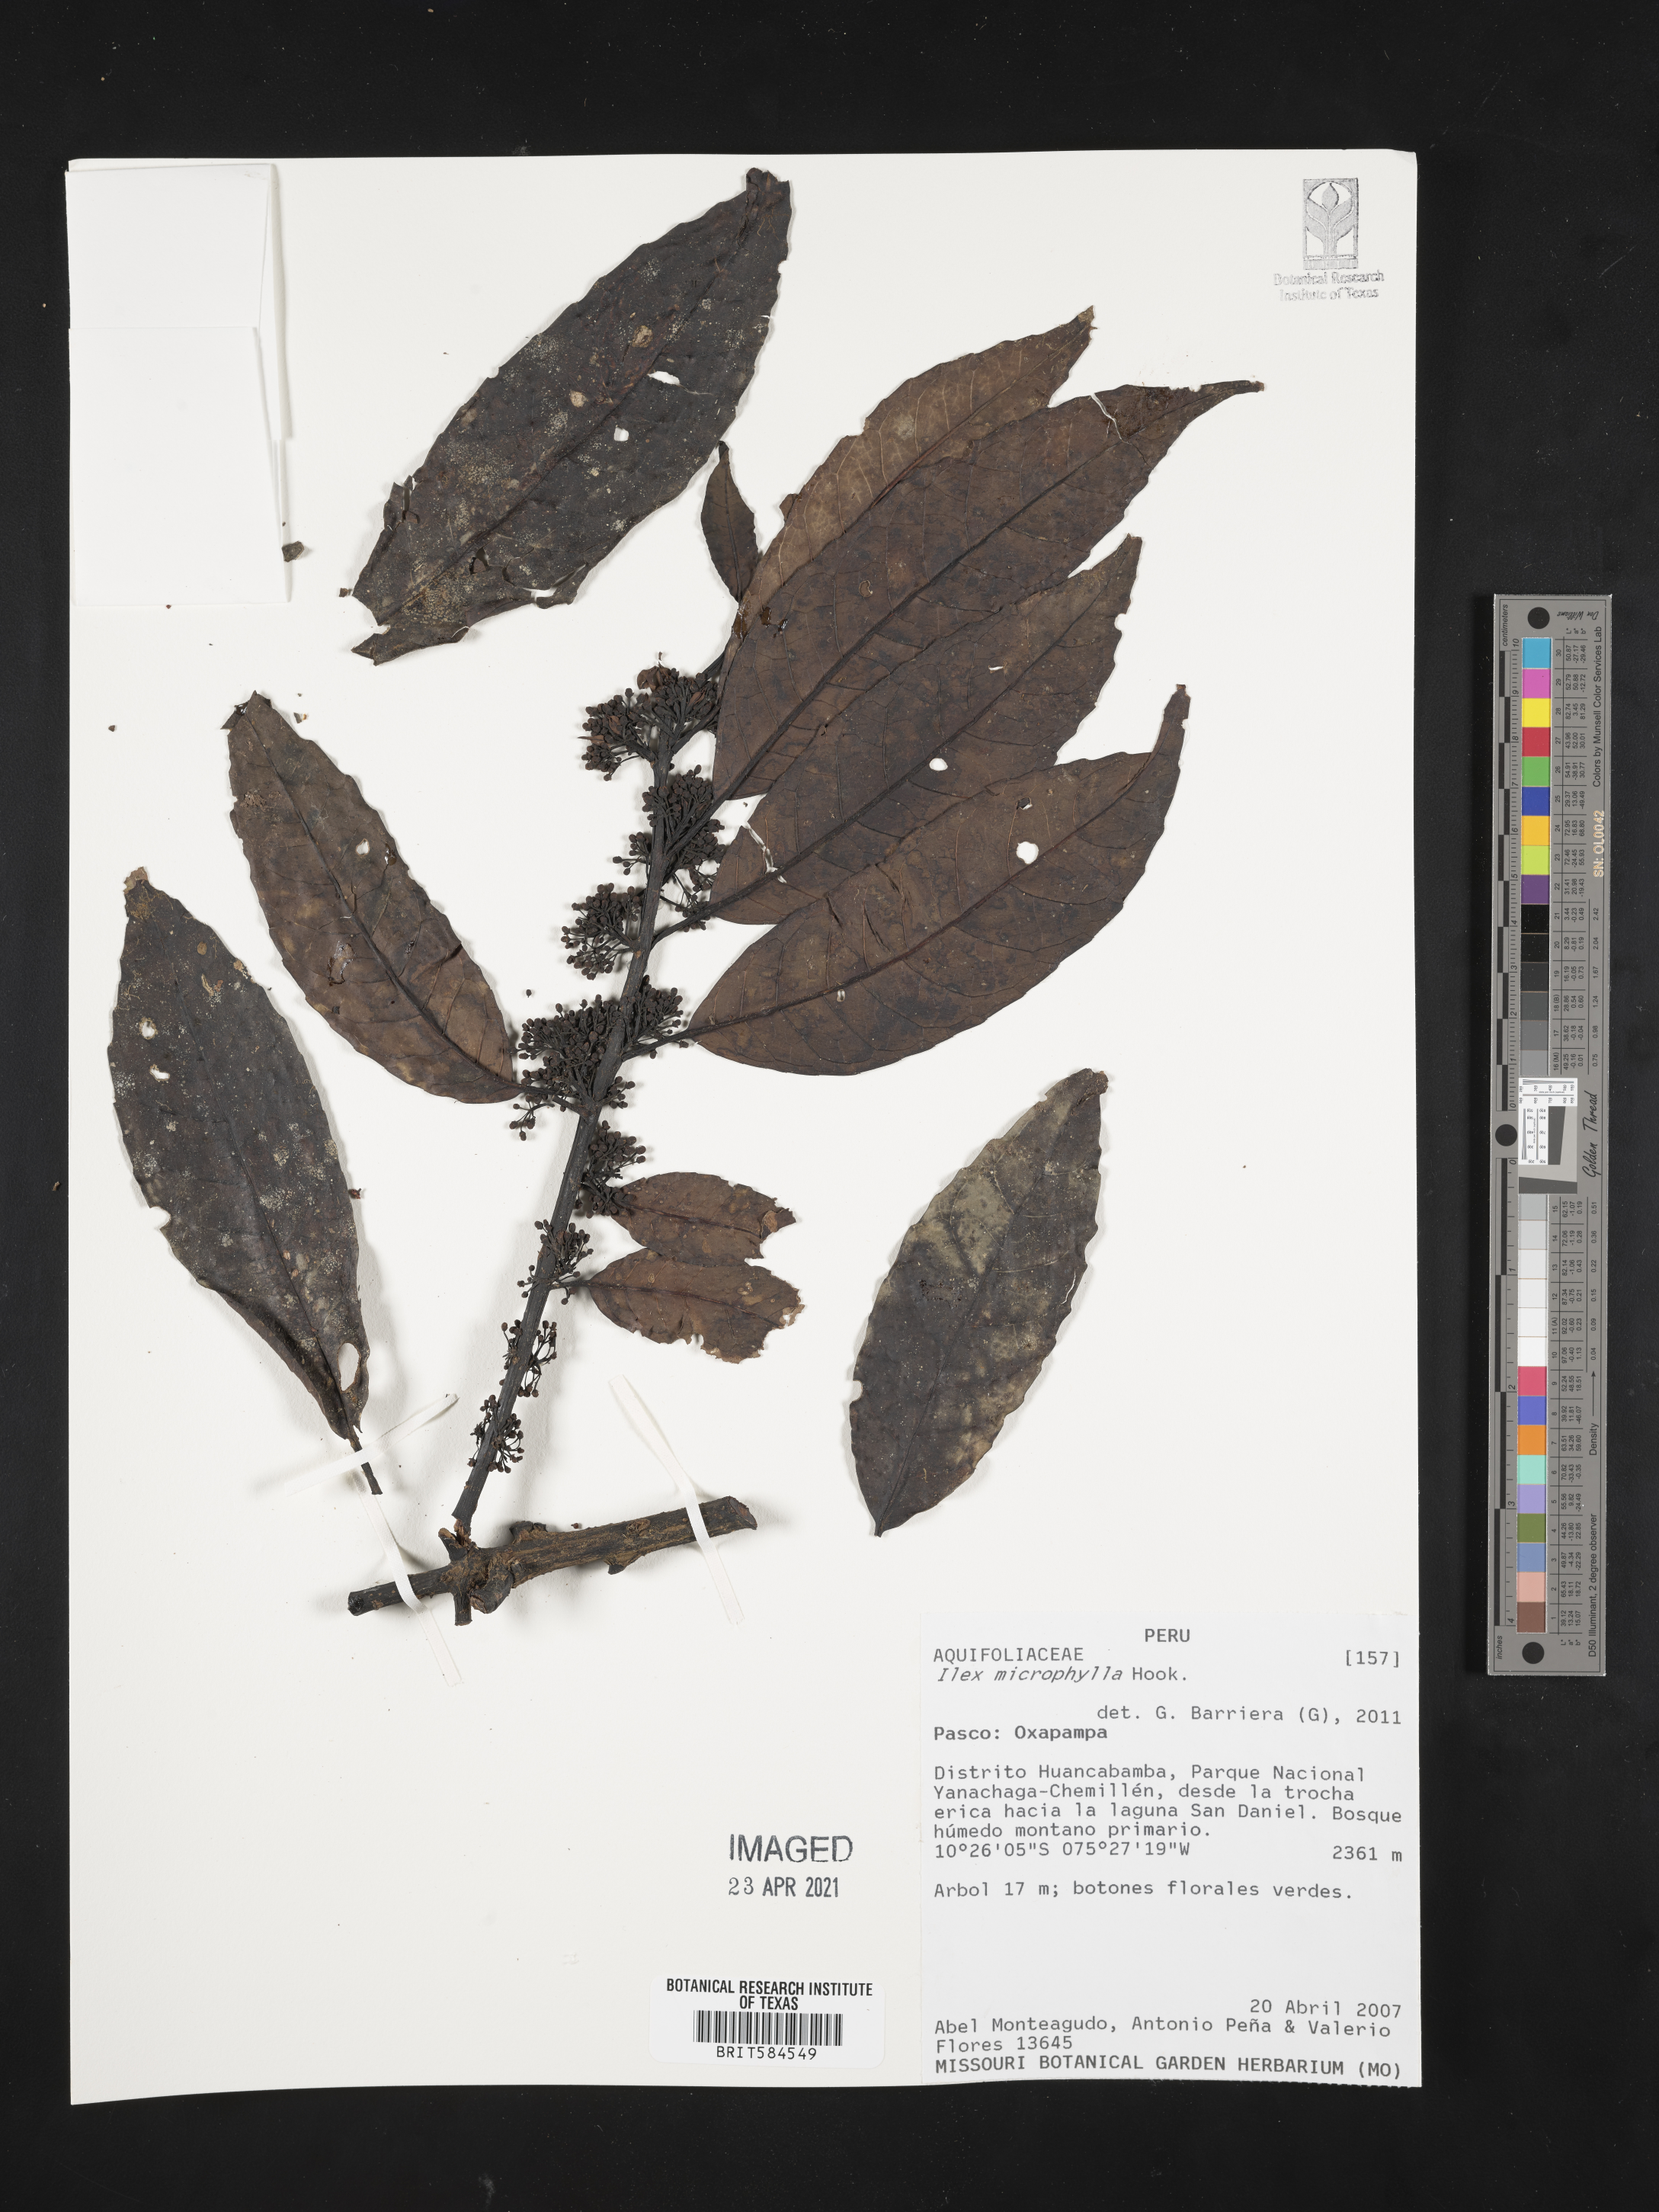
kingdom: Plantae
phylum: Tracheophyta
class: Magnoliopsida
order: Aquifoliales
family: Aquifoliaceae
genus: Ilex
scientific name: Ilex microphylla
